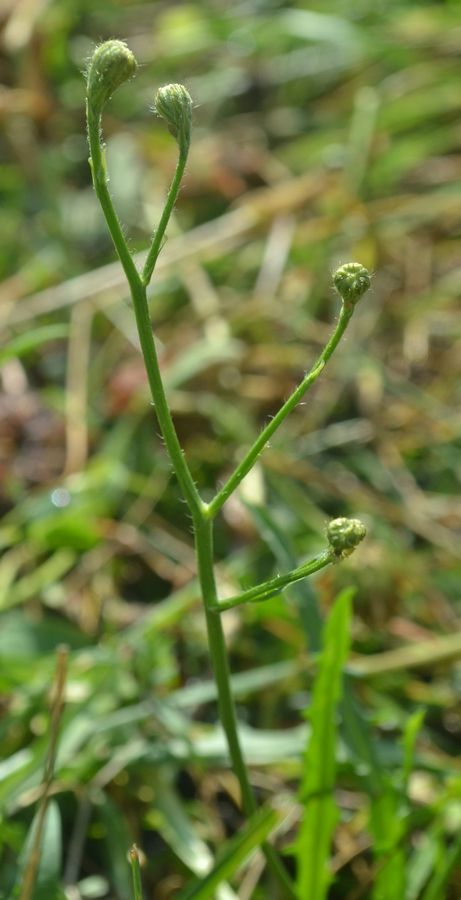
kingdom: Plantae
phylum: Tracheophyta
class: Magnoliopsida
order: Asterales
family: Asteraceae
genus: Scorzoneroides
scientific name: Scorzoneroides autumnalis
